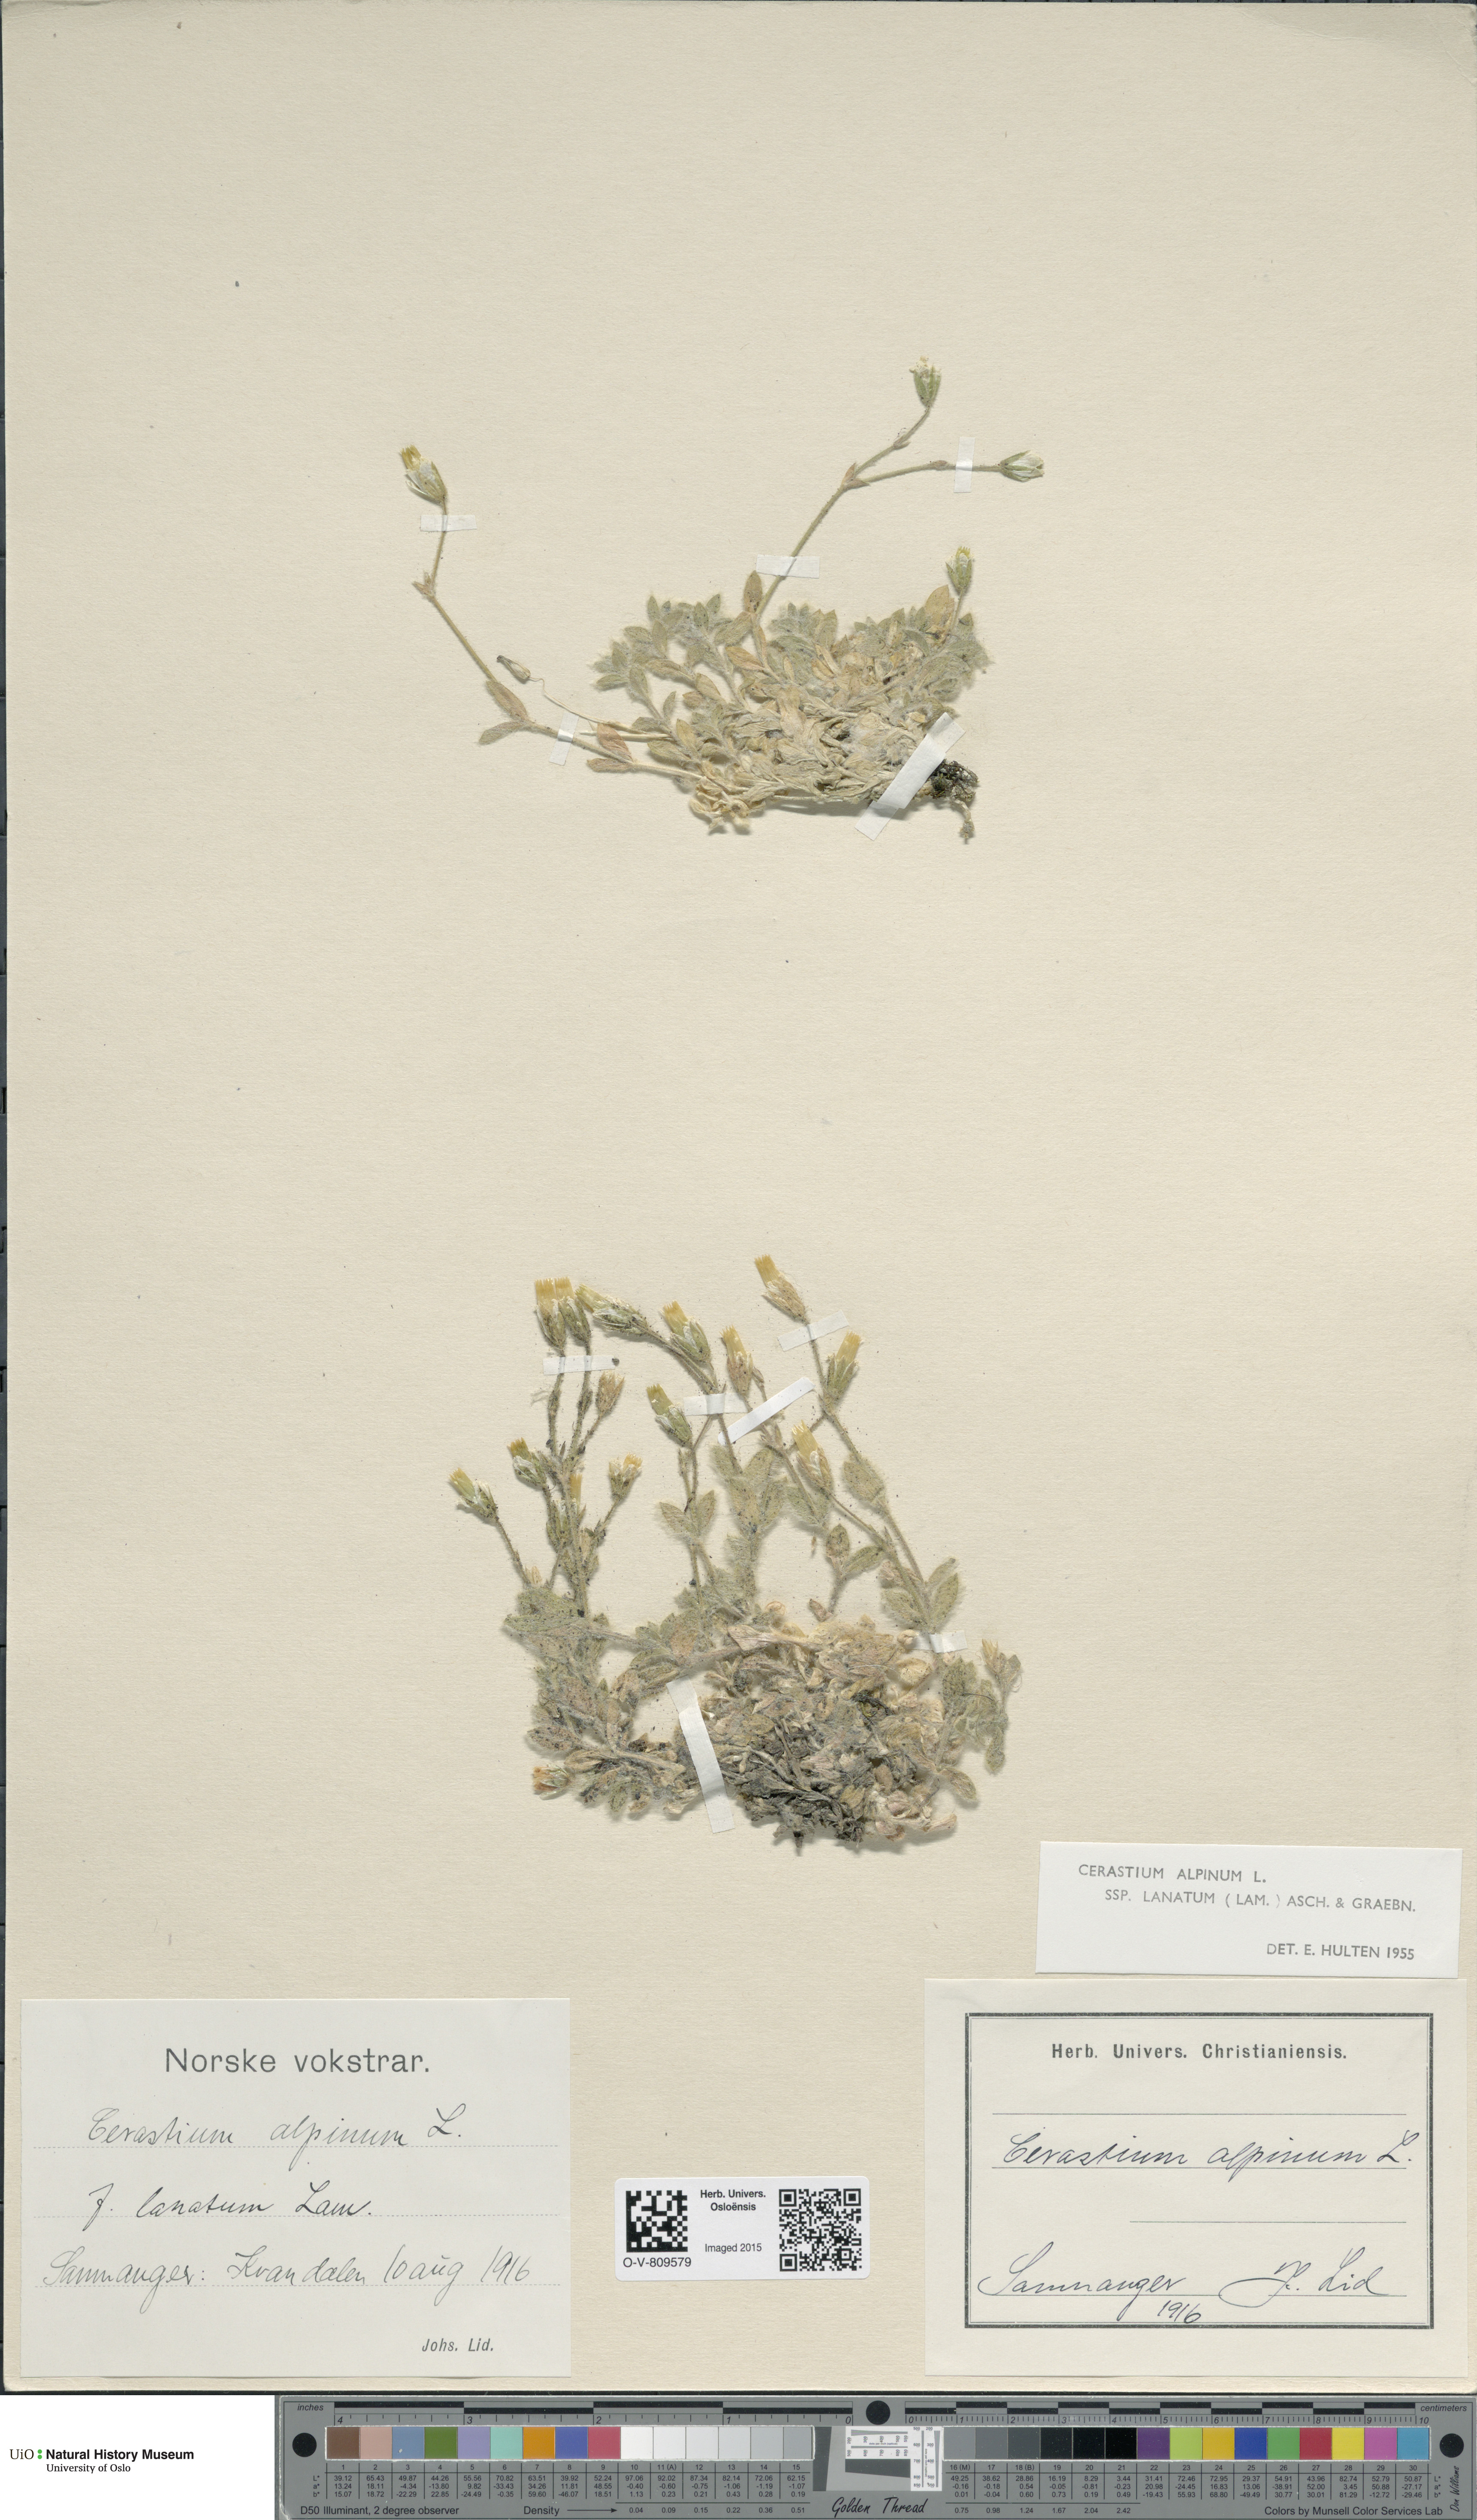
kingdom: Plantae
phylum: Tracheophyta
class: Magnoliopsida
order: Caryophyllales
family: Caryophyllaceae
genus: Cerastium
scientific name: Cerastium alpinum
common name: Alpine mouse-ear
